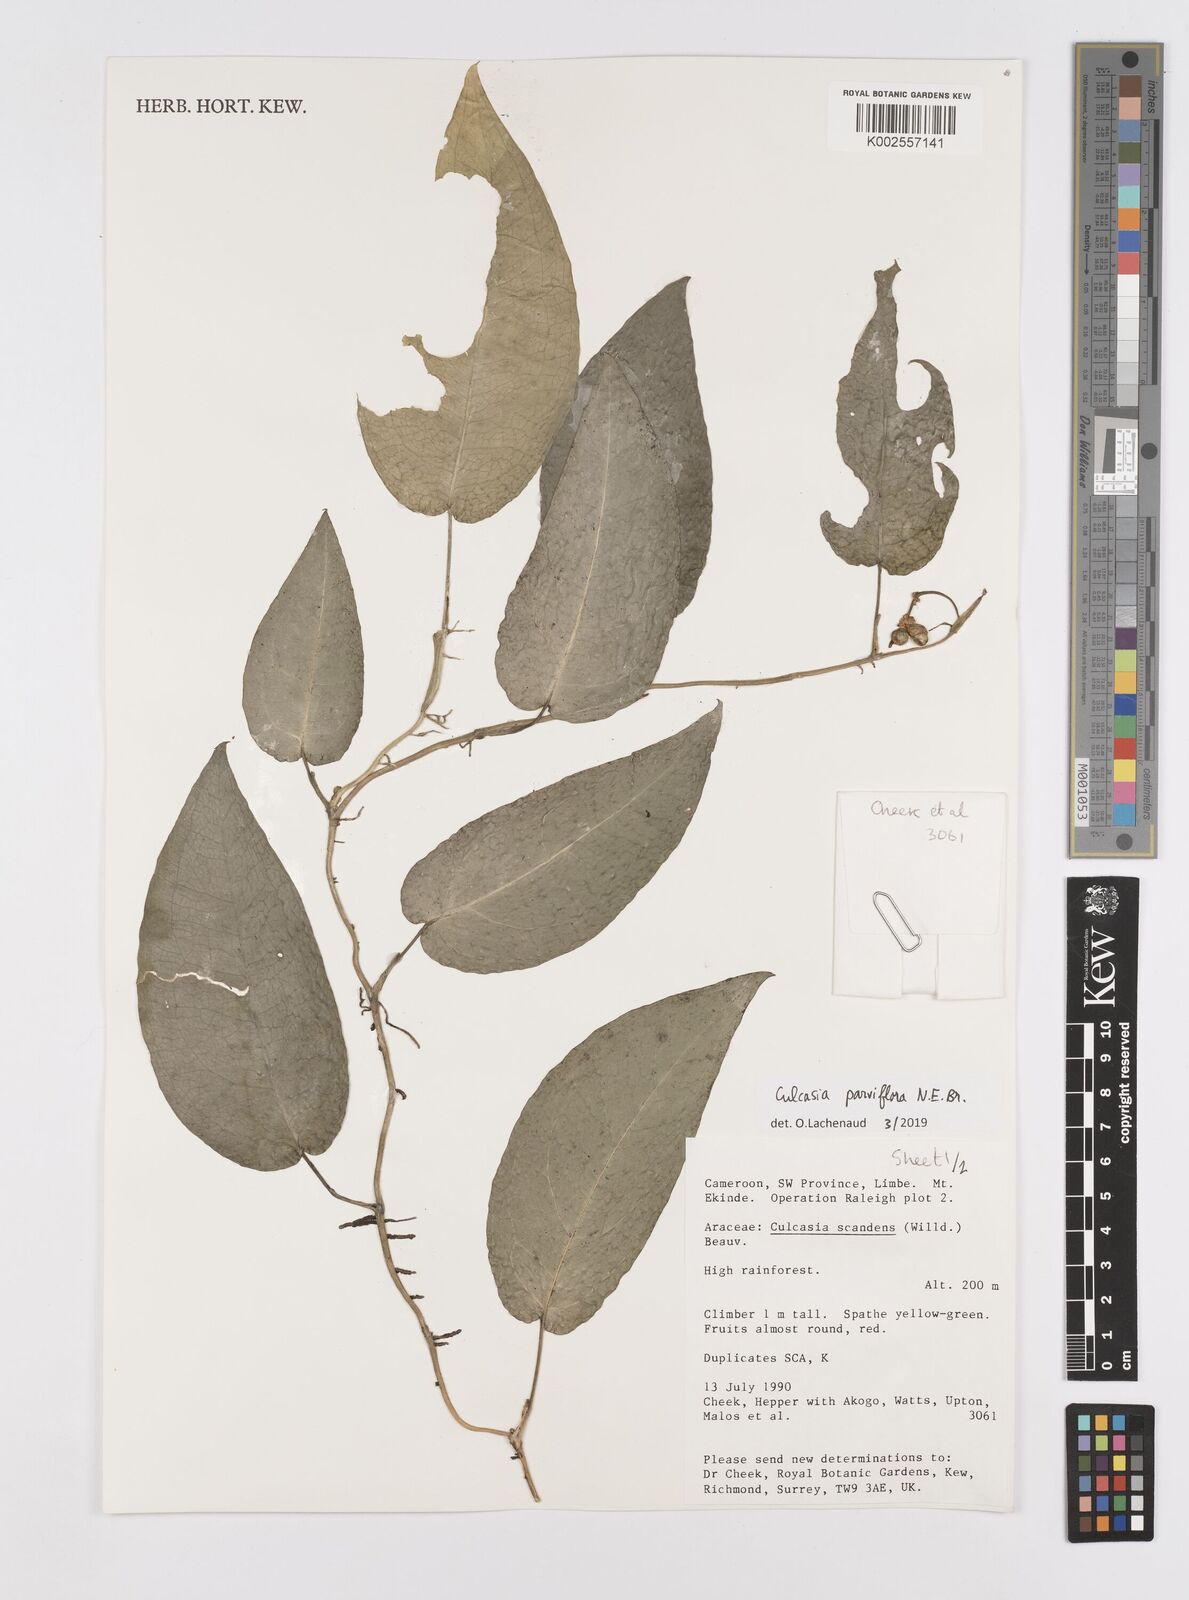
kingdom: Plantae
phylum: Tracheophyta
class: Liliopsida
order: Alismatales
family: Araceae
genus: Culcasia
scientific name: Culcasia parviflora
